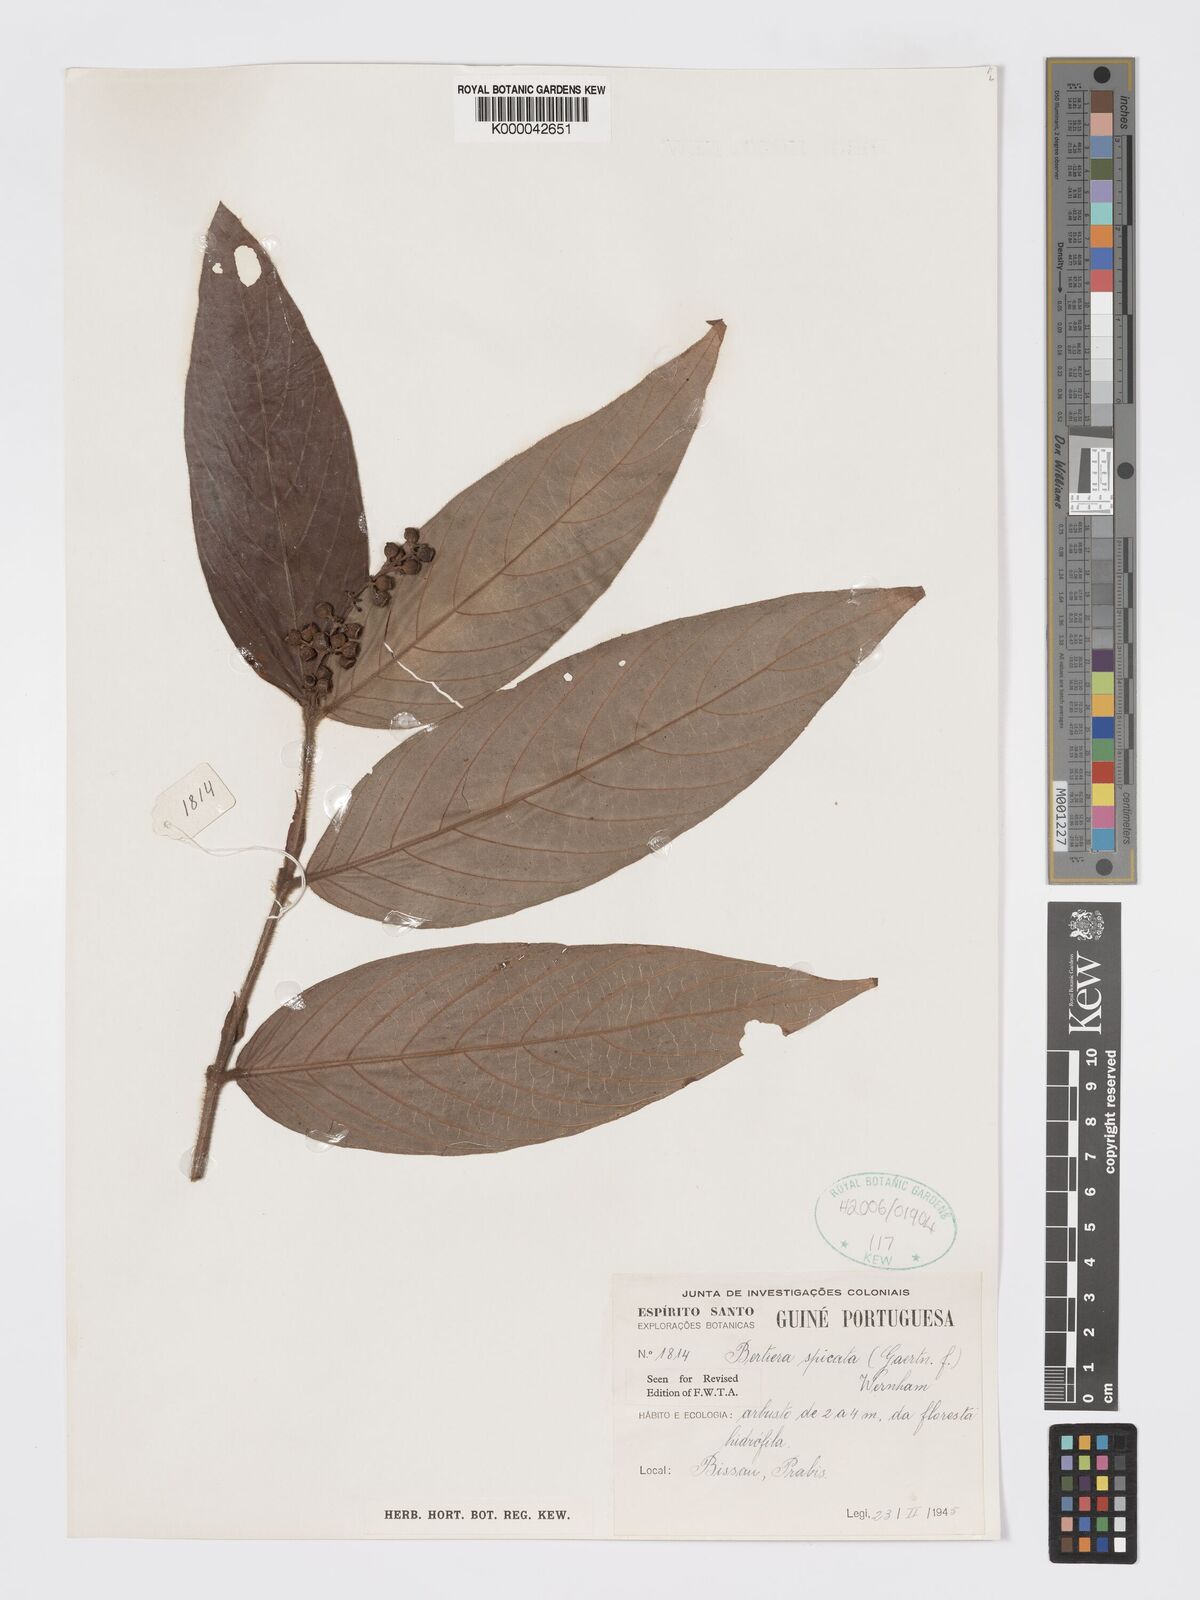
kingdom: Plantae
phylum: Tracheophyta
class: Magnoliopsida
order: Gentianales
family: Rubiaceae
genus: Bertiera
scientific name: Bertiera
